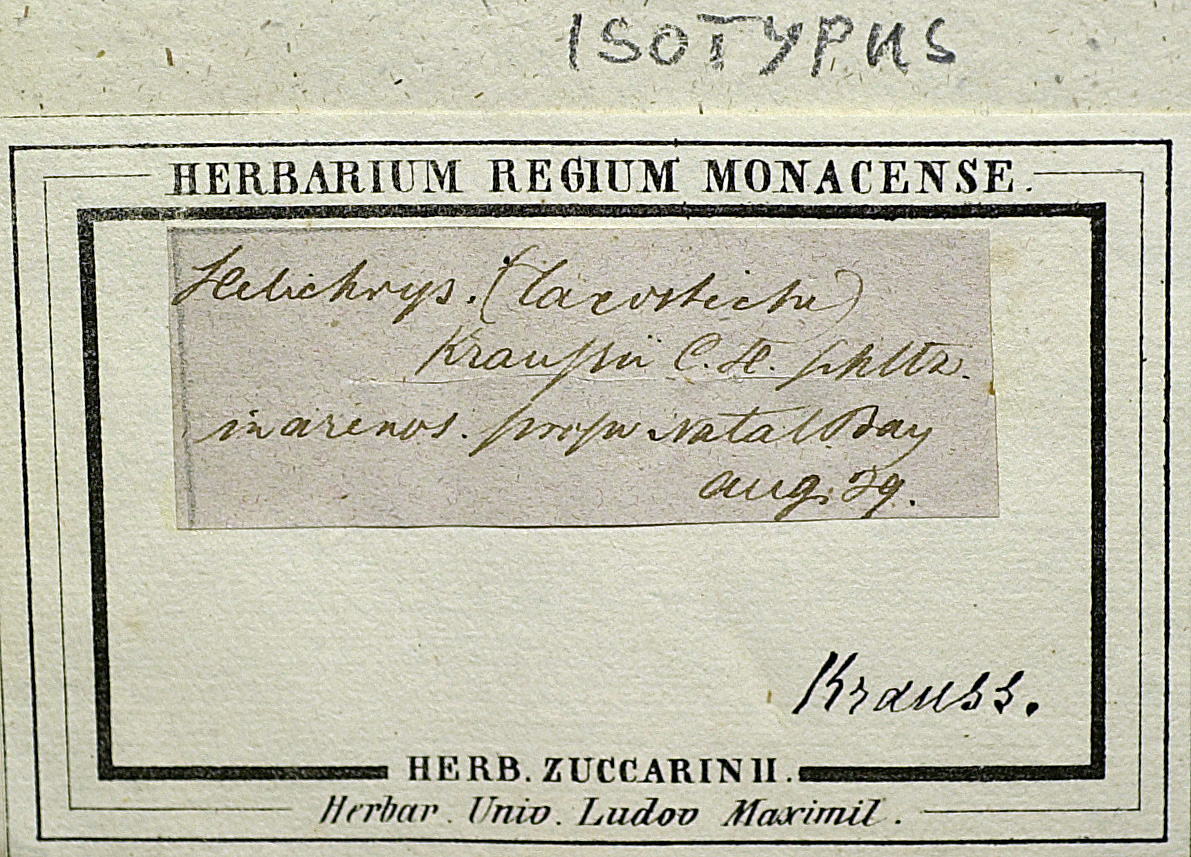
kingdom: Plantae
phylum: Tracheophyta
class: Magnoliopsida
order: Asterales
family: Asteraceae
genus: Helichrysum
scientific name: Helichrysum kraussii
